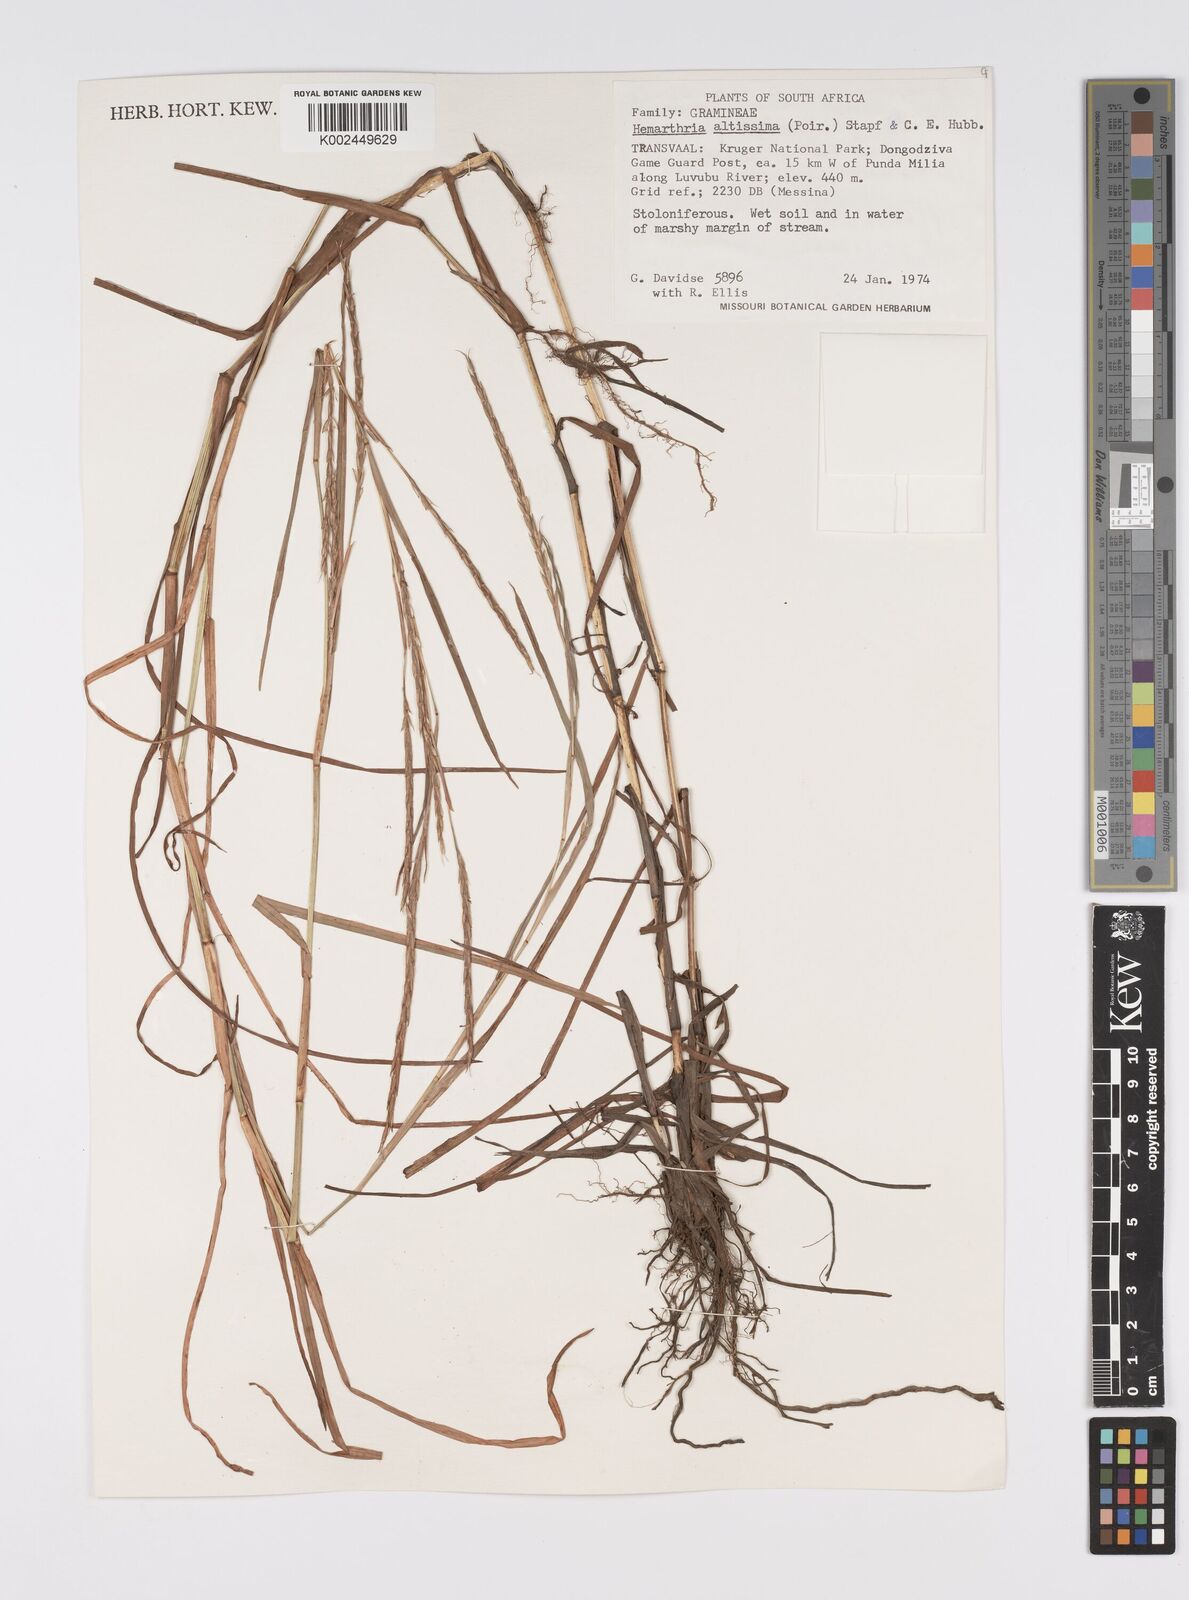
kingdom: Plantae
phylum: Tracheophyta
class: Liliopsida
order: Poales
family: Poaceae
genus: Hemarthria
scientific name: Hemarthria altissima
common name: African jointgrass
